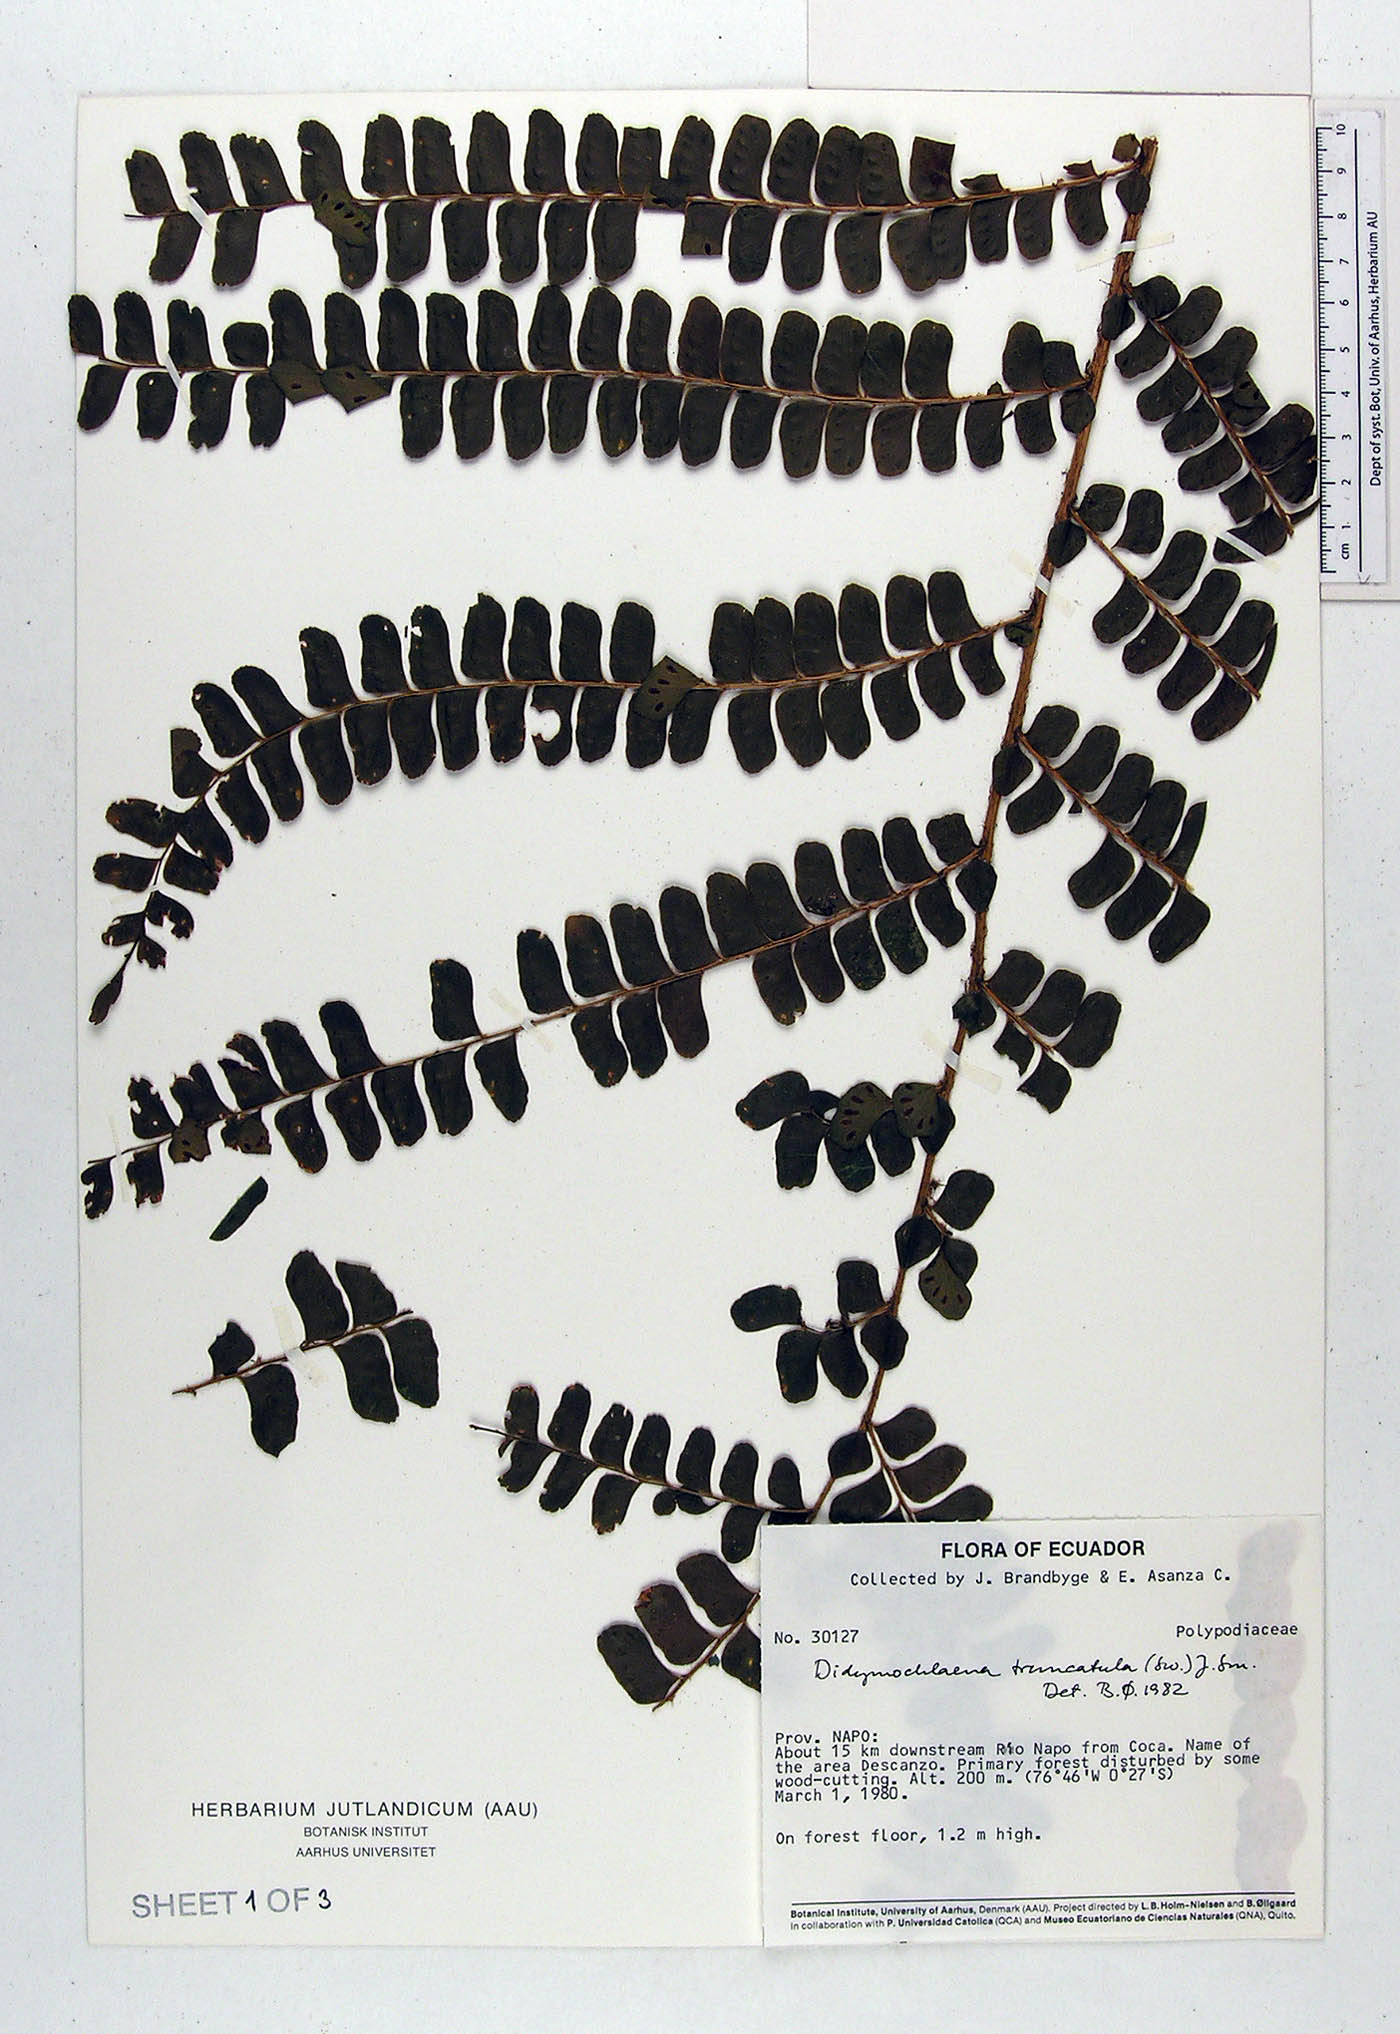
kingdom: Plantae
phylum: Tracheophyta
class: Polypodiopsida
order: Polypodiales
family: Didymochlaenaceae
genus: Didymochlaena
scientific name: Didymochlaena truncatula
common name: Mahogany fern
